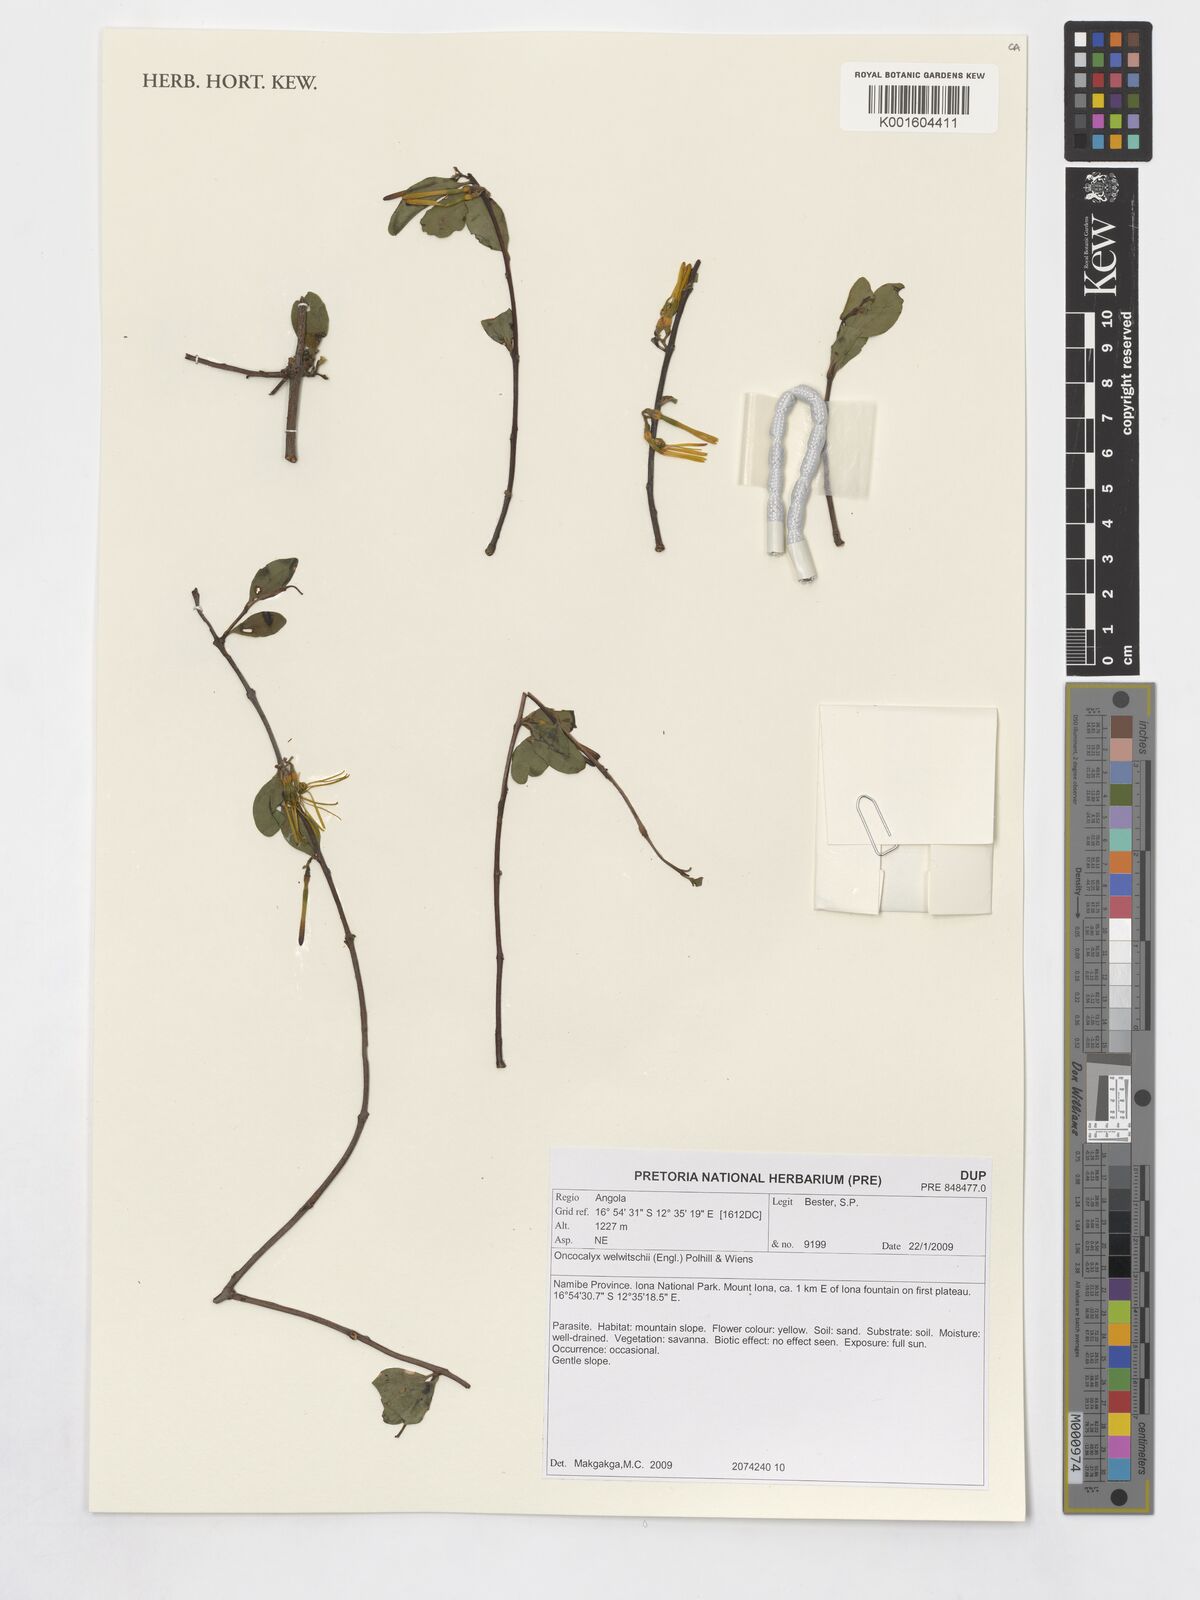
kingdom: Plantae
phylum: Tracheophyta
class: Magnoliopsida
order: Santalales
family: Loranthaceae
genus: Loranthella
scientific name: Loranthella welwitschii
